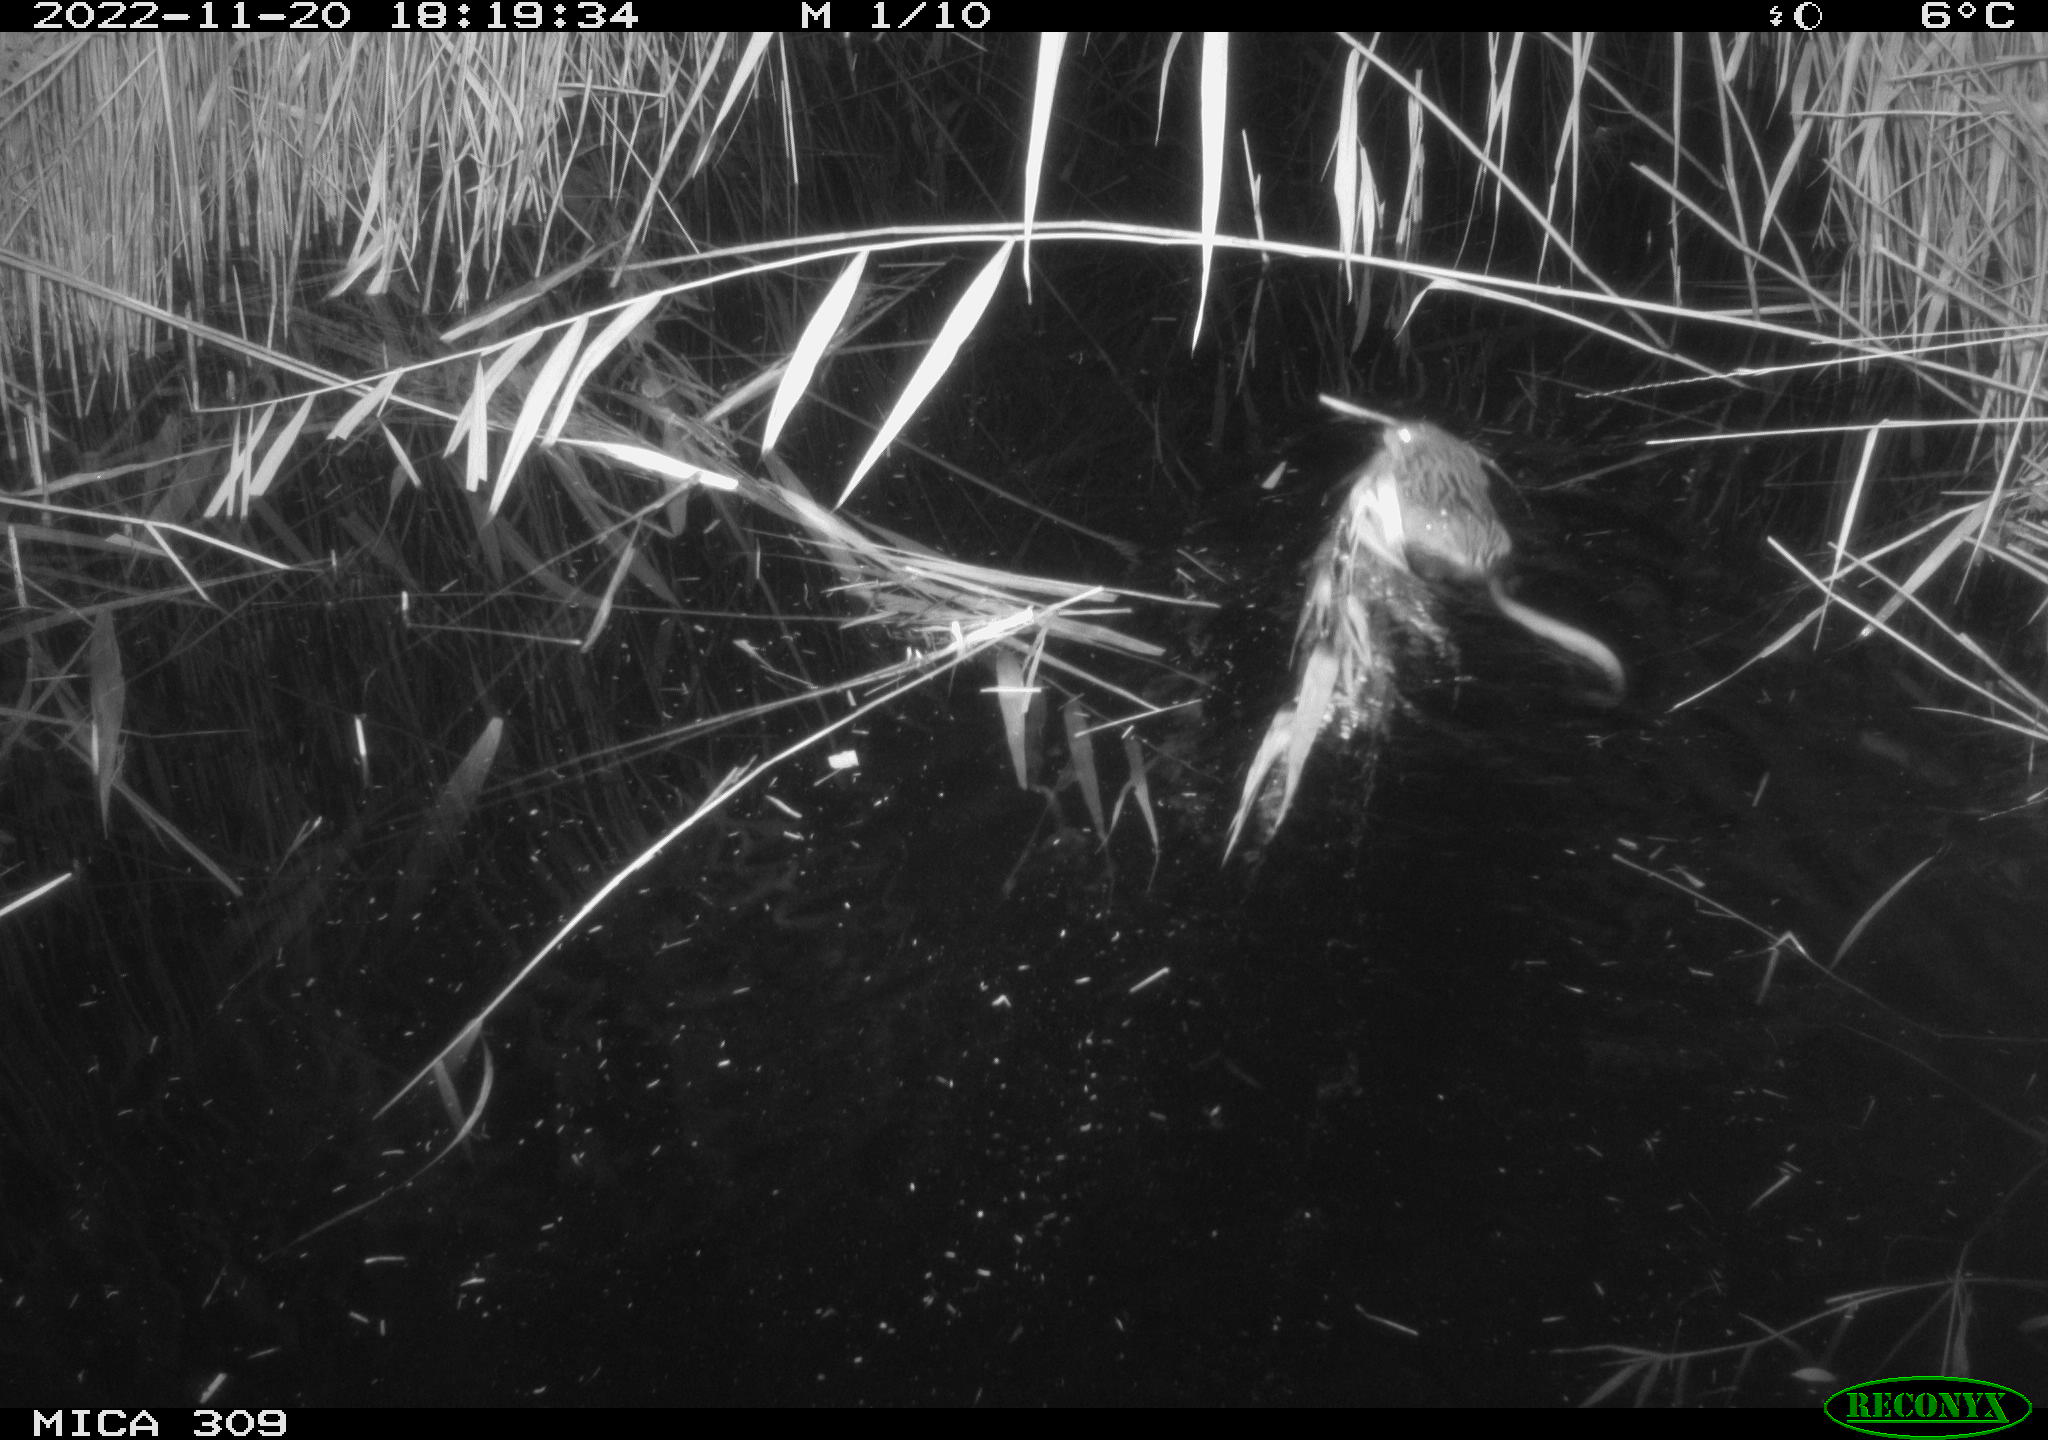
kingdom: Animalia
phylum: Chordata
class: Mammalia
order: Rodentia
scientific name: Rodentia
